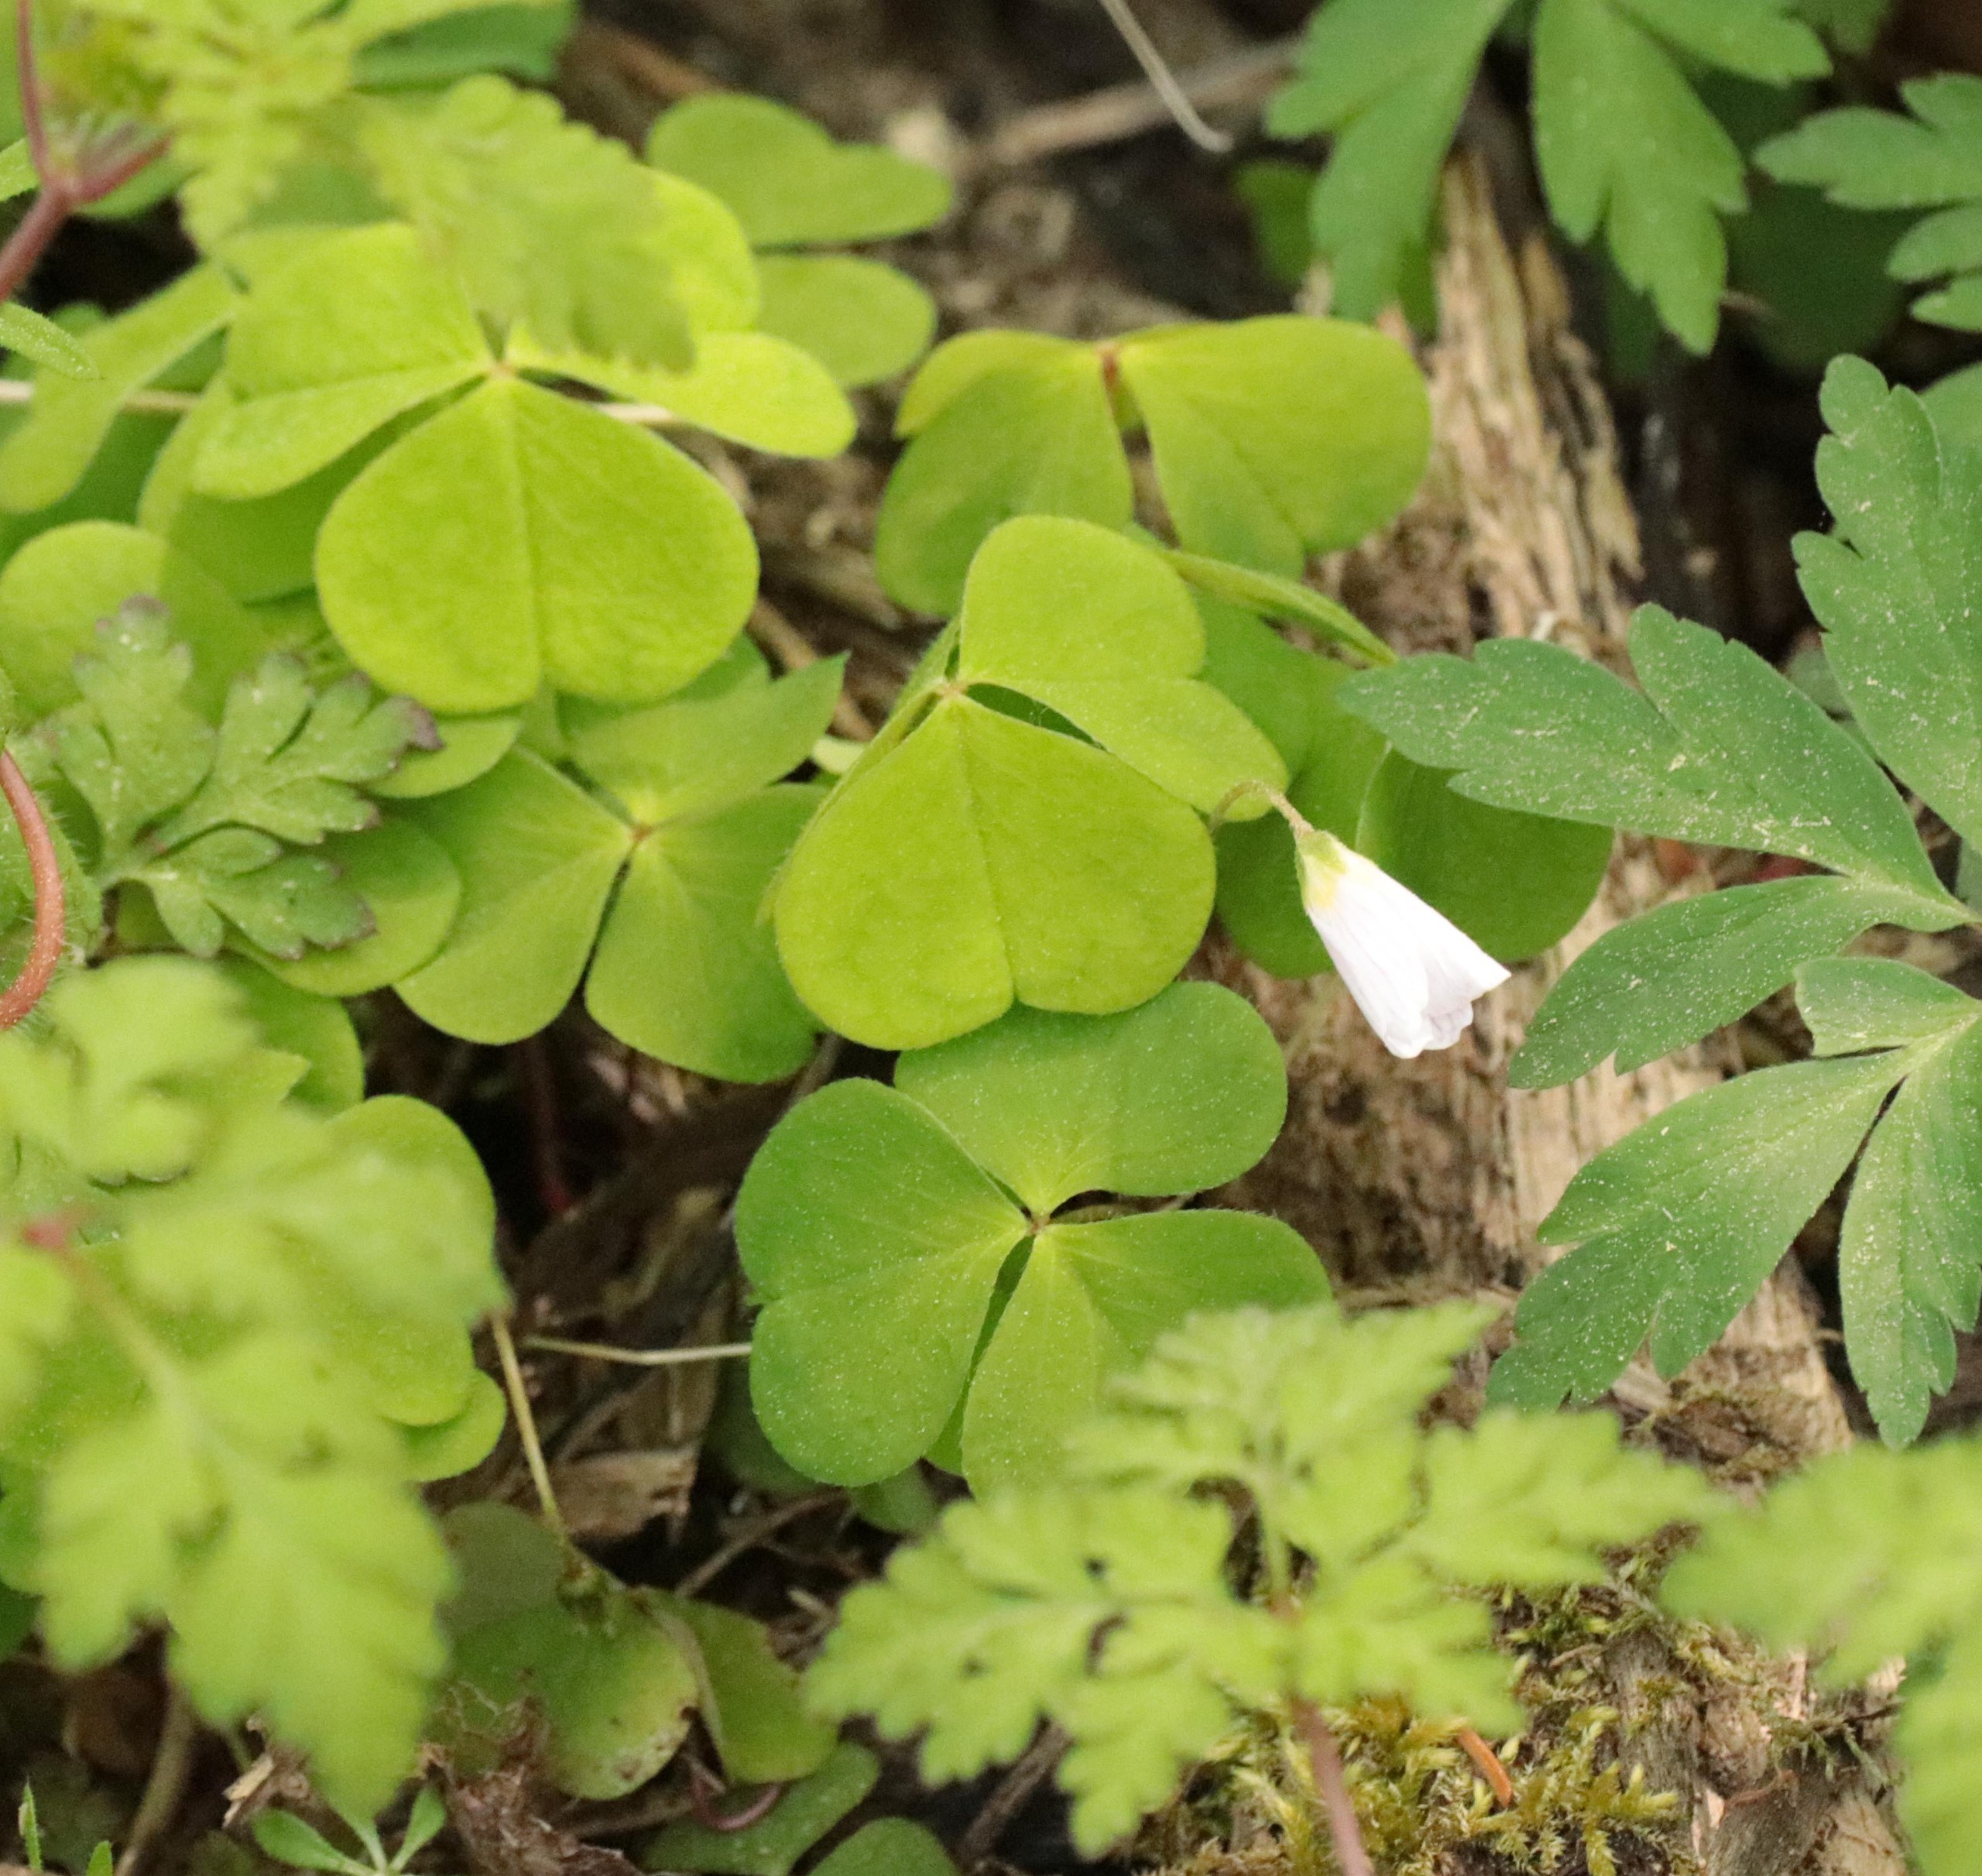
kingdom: Plantae
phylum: Tracheophyta
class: Magnoliopsida
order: Oxalidales
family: Oxalidaceae
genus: Oxalis
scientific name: Oxalis acetosella
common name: Skovsyre
